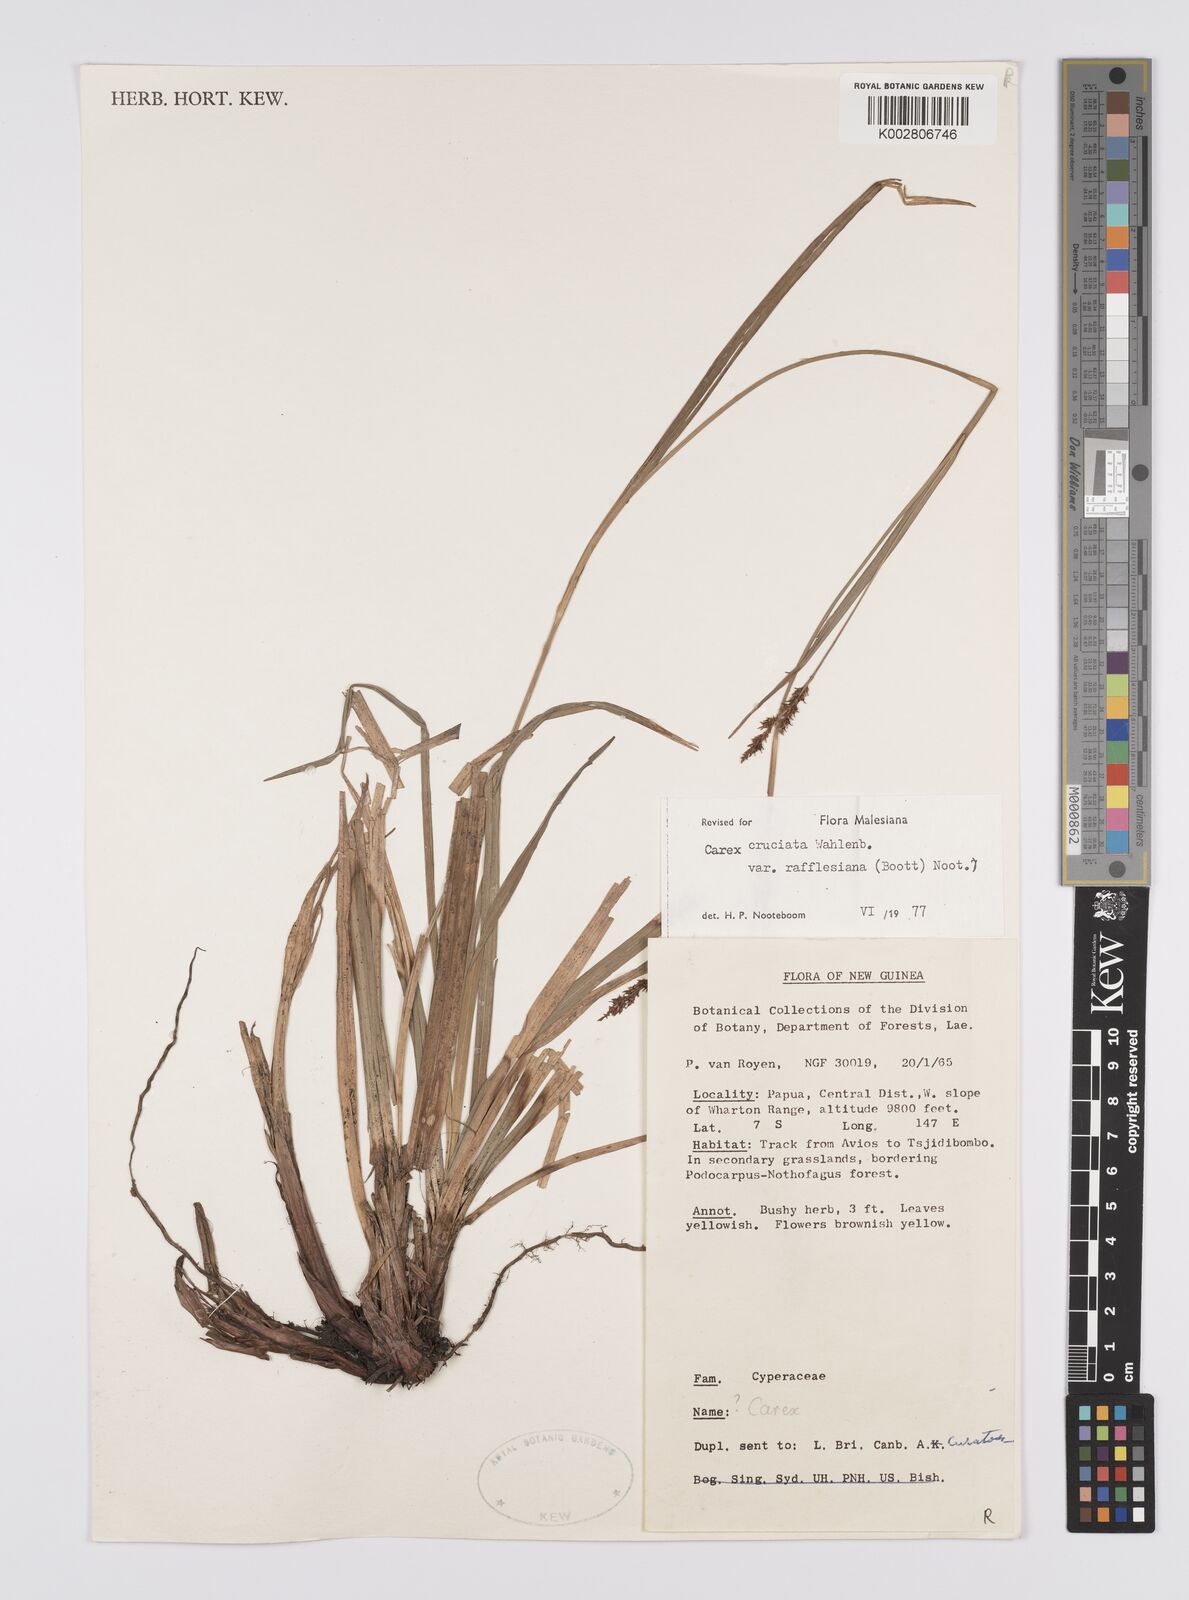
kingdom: Plantae
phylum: Tracheophyta
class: Liliopsida
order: Poales
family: Cyperaceae
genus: Carex
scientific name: Carex rafflesiana
